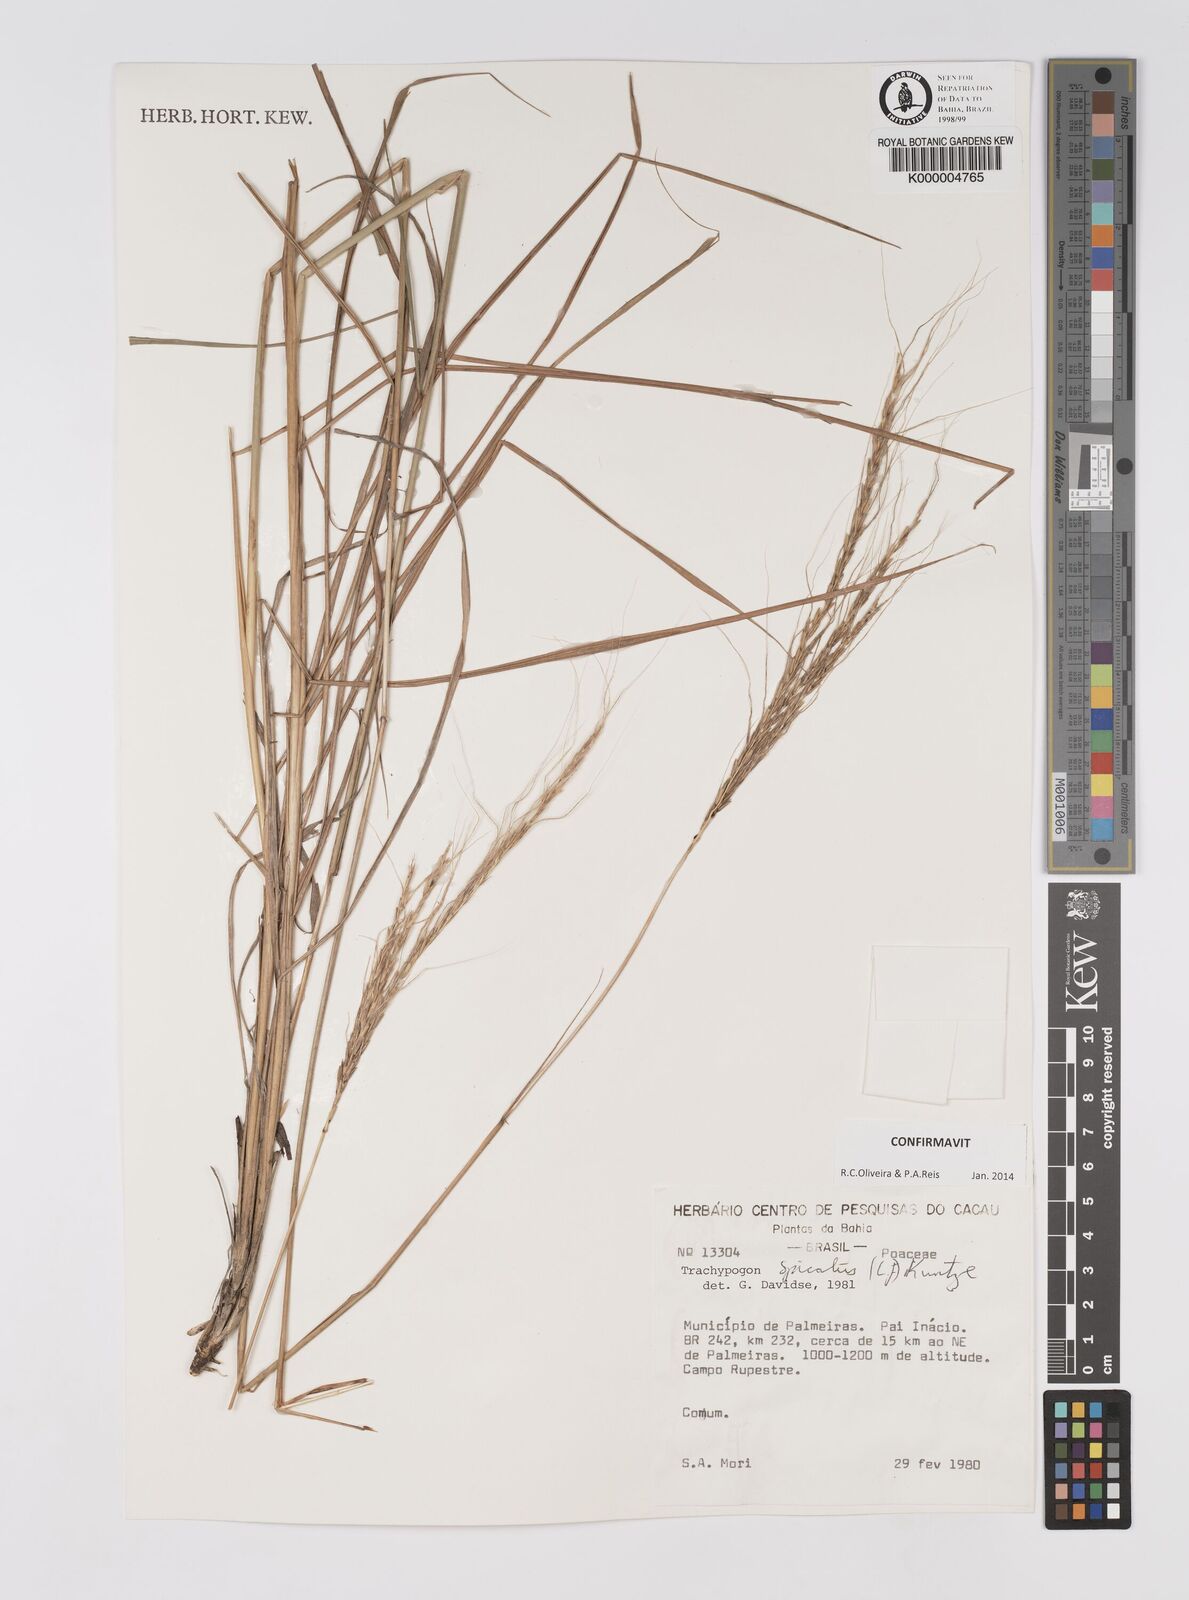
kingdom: Plantae
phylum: Tracheophyta
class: Liliopsida
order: Poales
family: Poaceae
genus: Trachypogon
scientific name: Trachypogon spicatus
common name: Crinkle-awn
